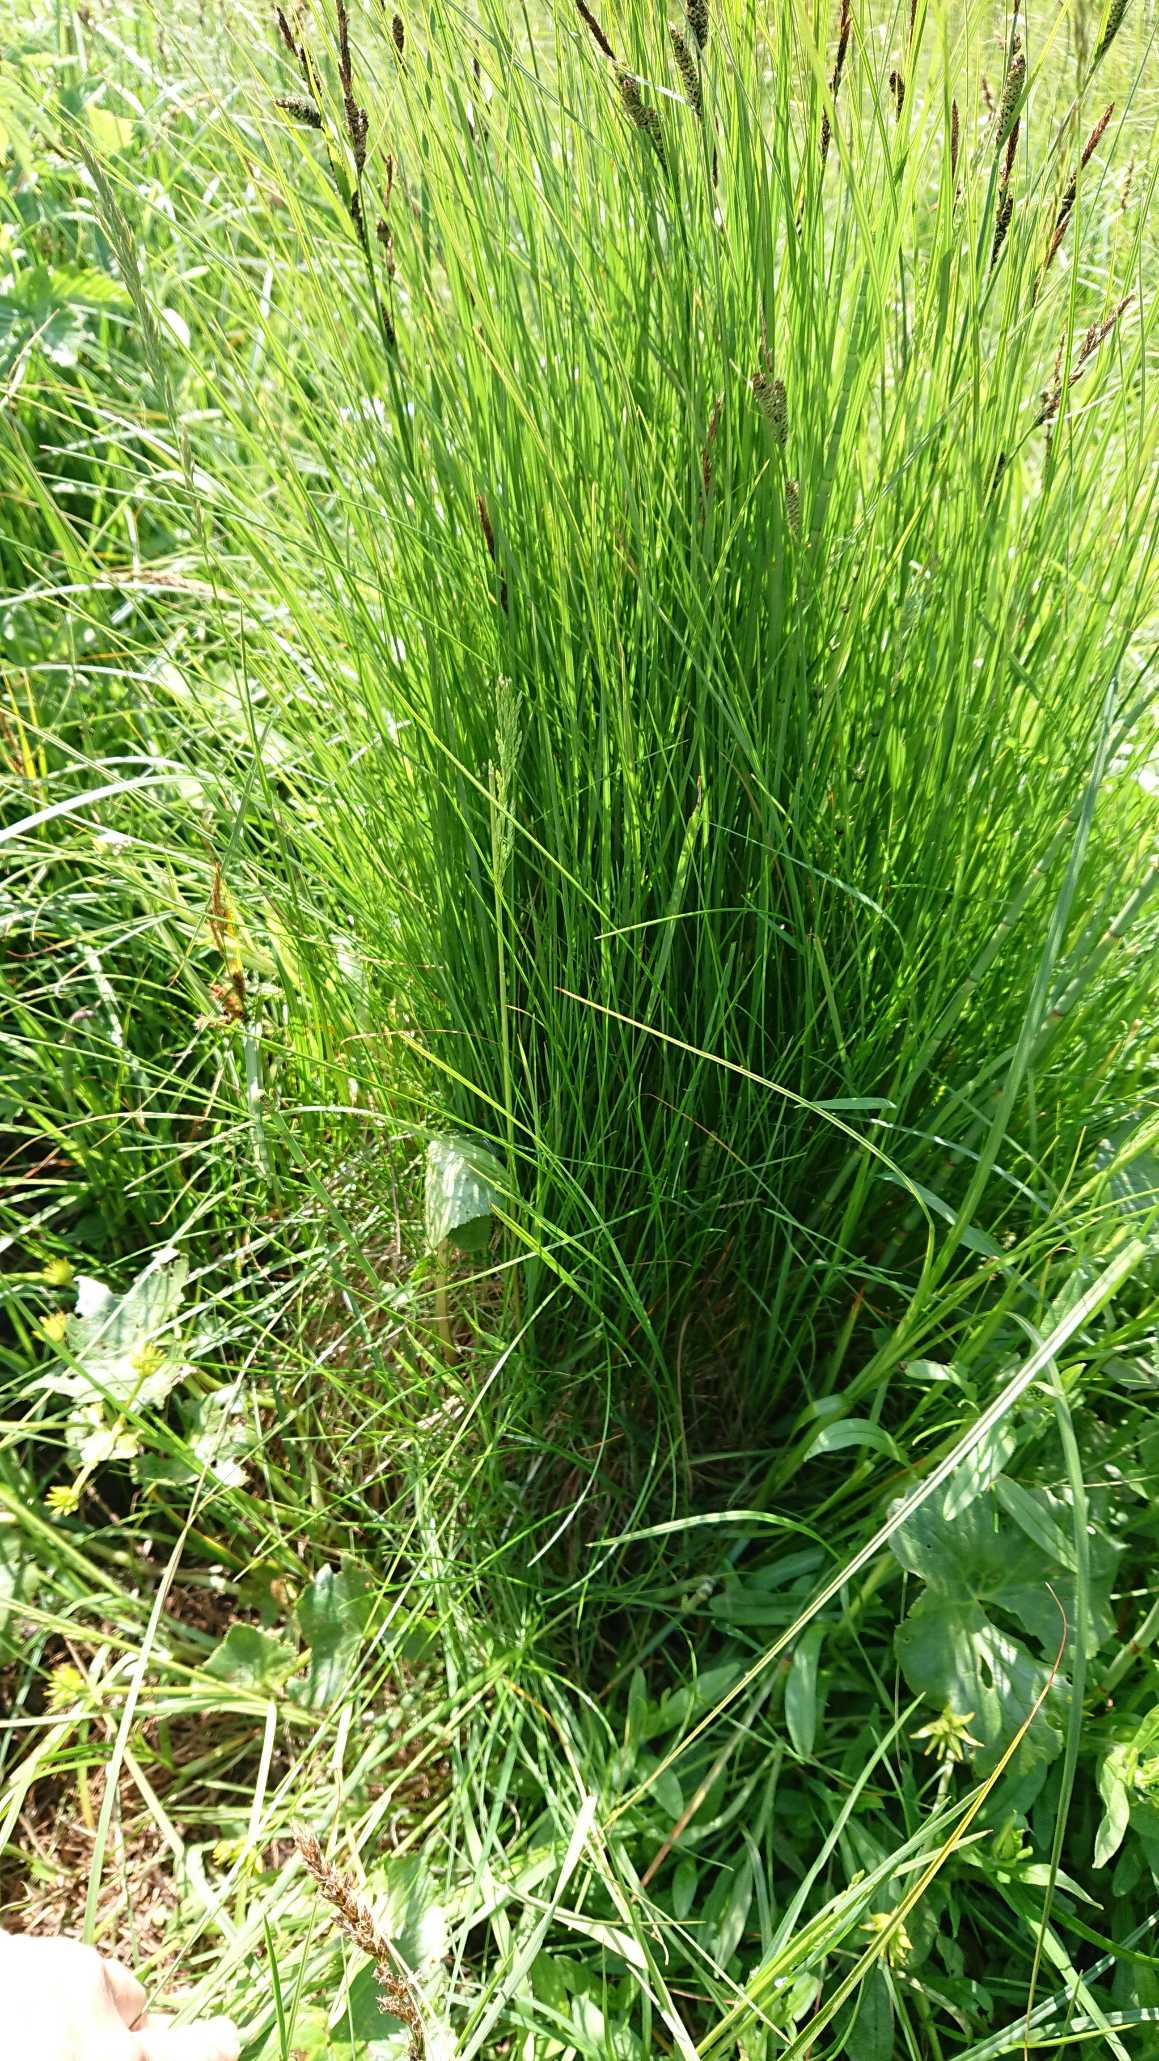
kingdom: Plantae
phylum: Tracheophyta
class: Liliopsida
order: Poales
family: Cyperaceae
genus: Carex
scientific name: Carex nigra
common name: Knold-star
